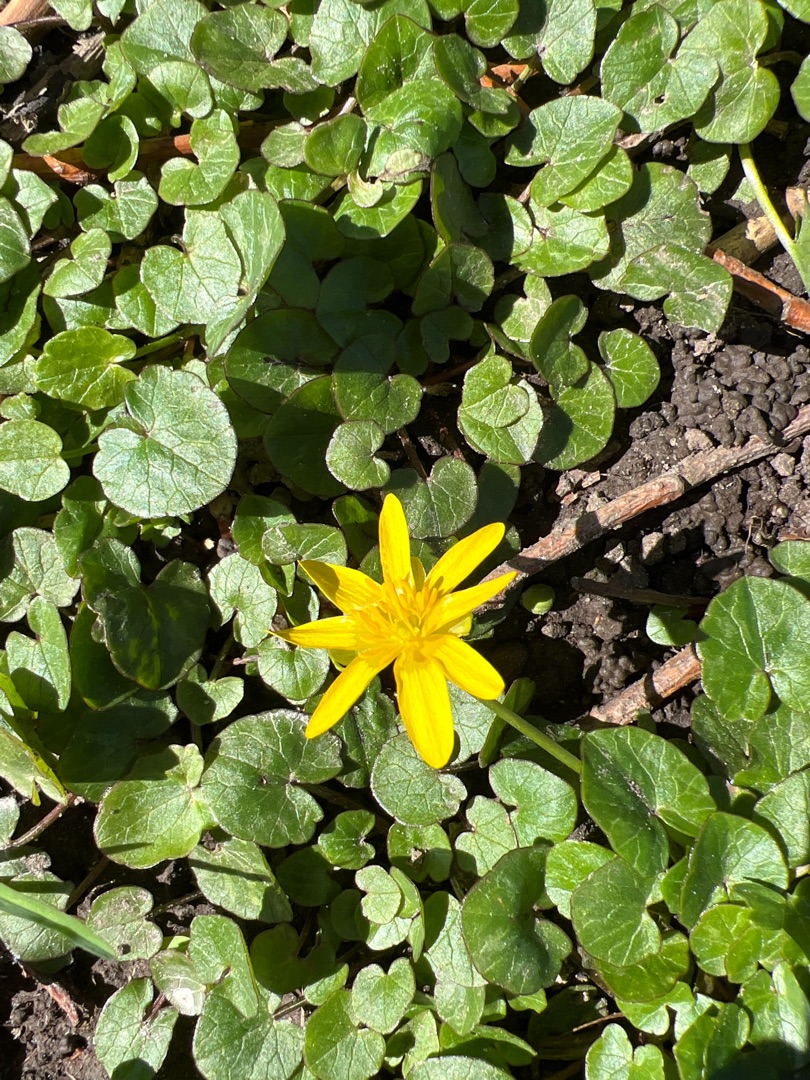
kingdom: Plantae
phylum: Tracheophyta
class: Magnoliopsida
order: Ranunculales
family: Ranunculaceae
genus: Ficaria
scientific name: Ficaria verna
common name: Vorterod
